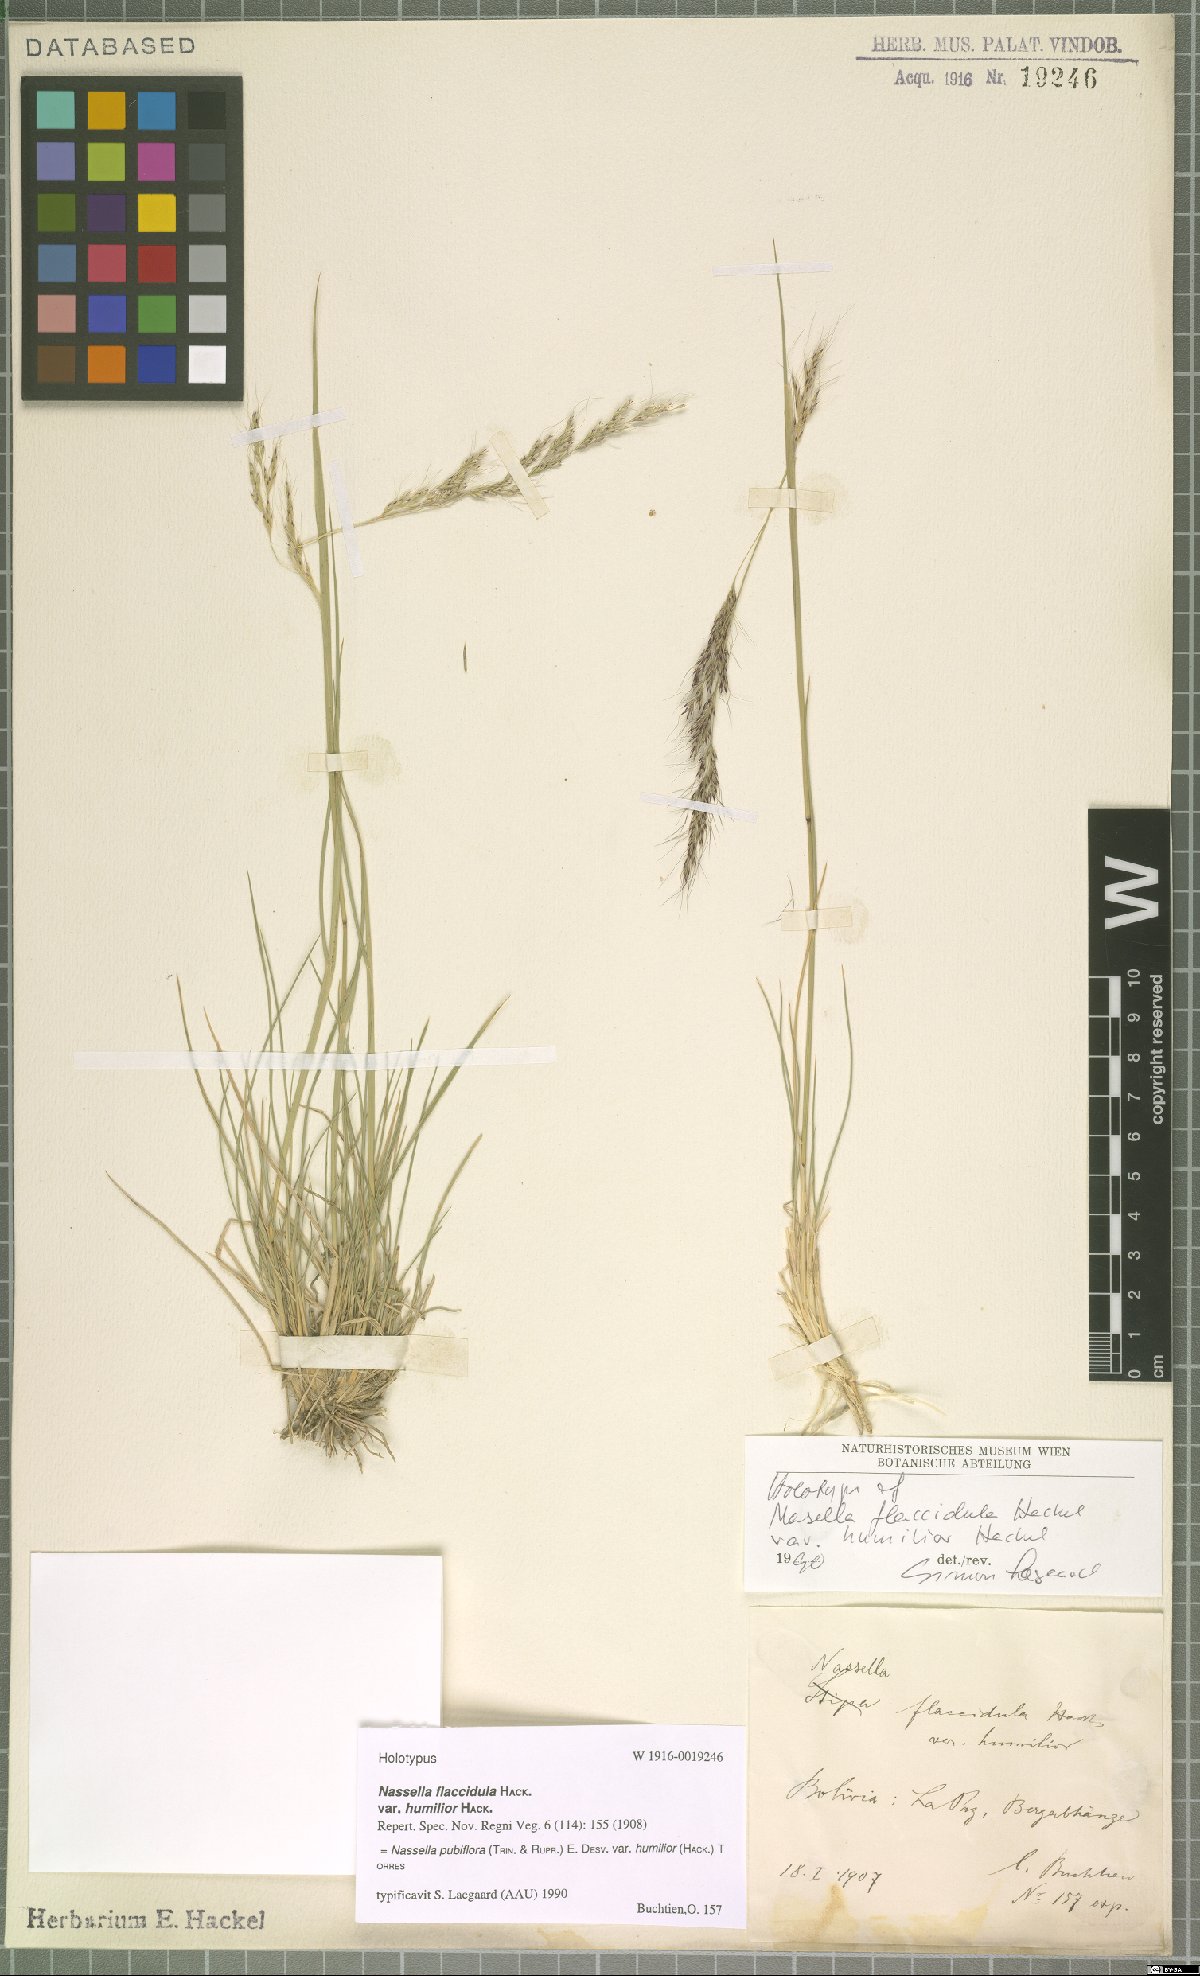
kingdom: Plantae
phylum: Tracheophyta
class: Liliopsida
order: Poales
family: Poaceae
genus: Nassella
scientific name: Nassella pubiflora
